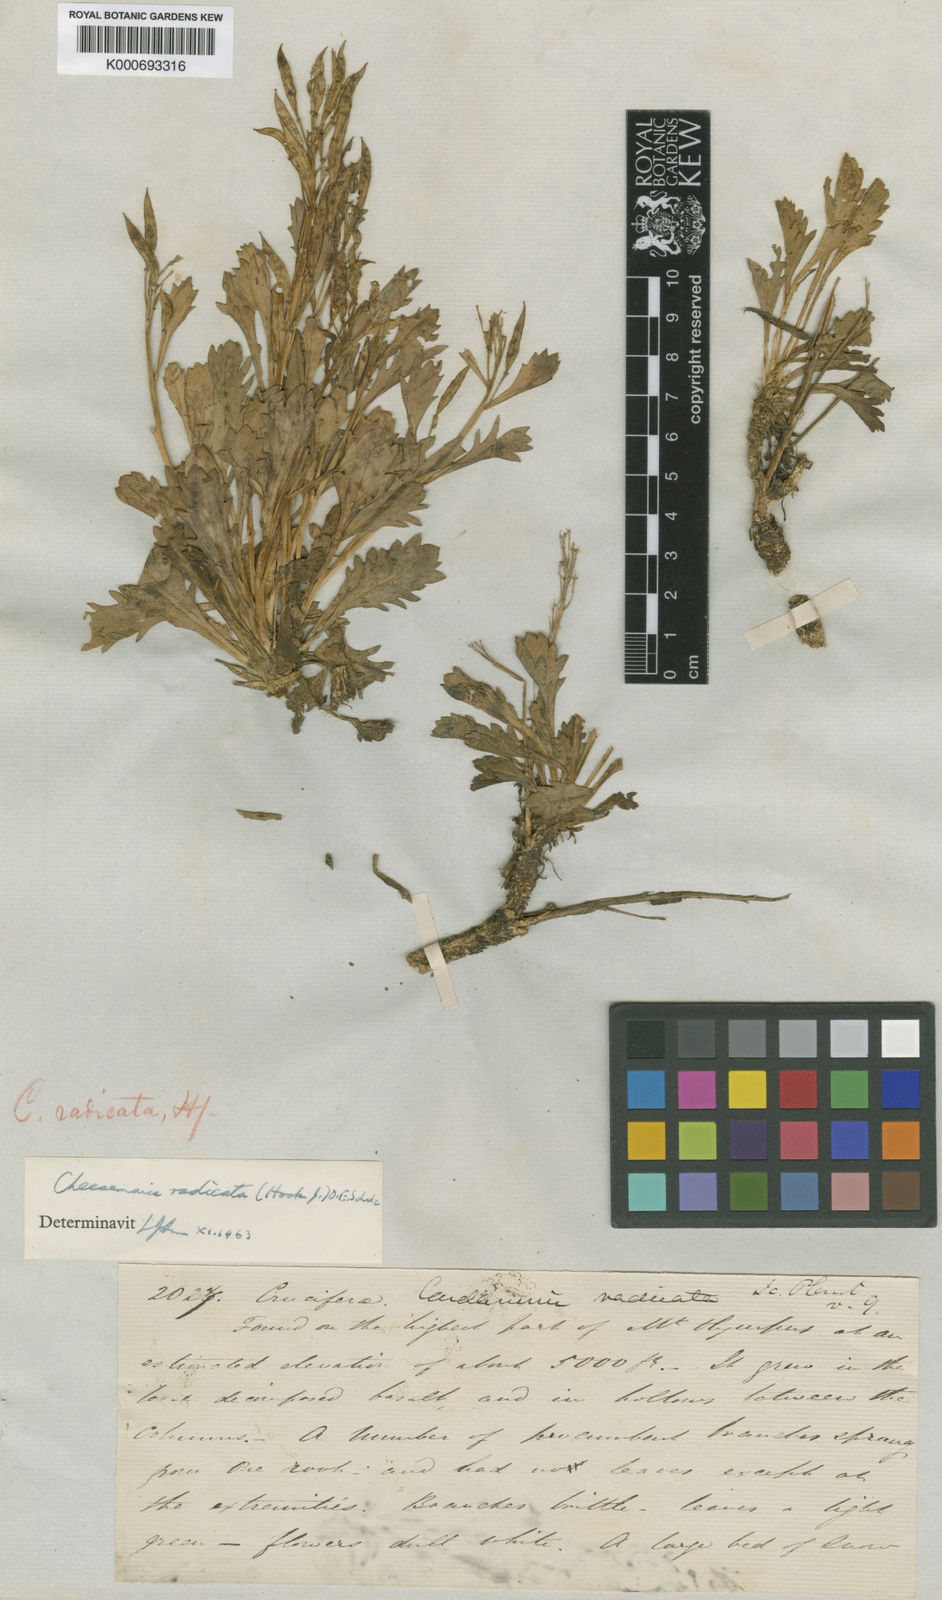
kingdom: Plantae
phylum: Tracheophyta
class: Magnoliopsida
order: Brassicales
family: Brassicaceae
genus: Pachycladon
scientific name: Pachycladon radicatum
